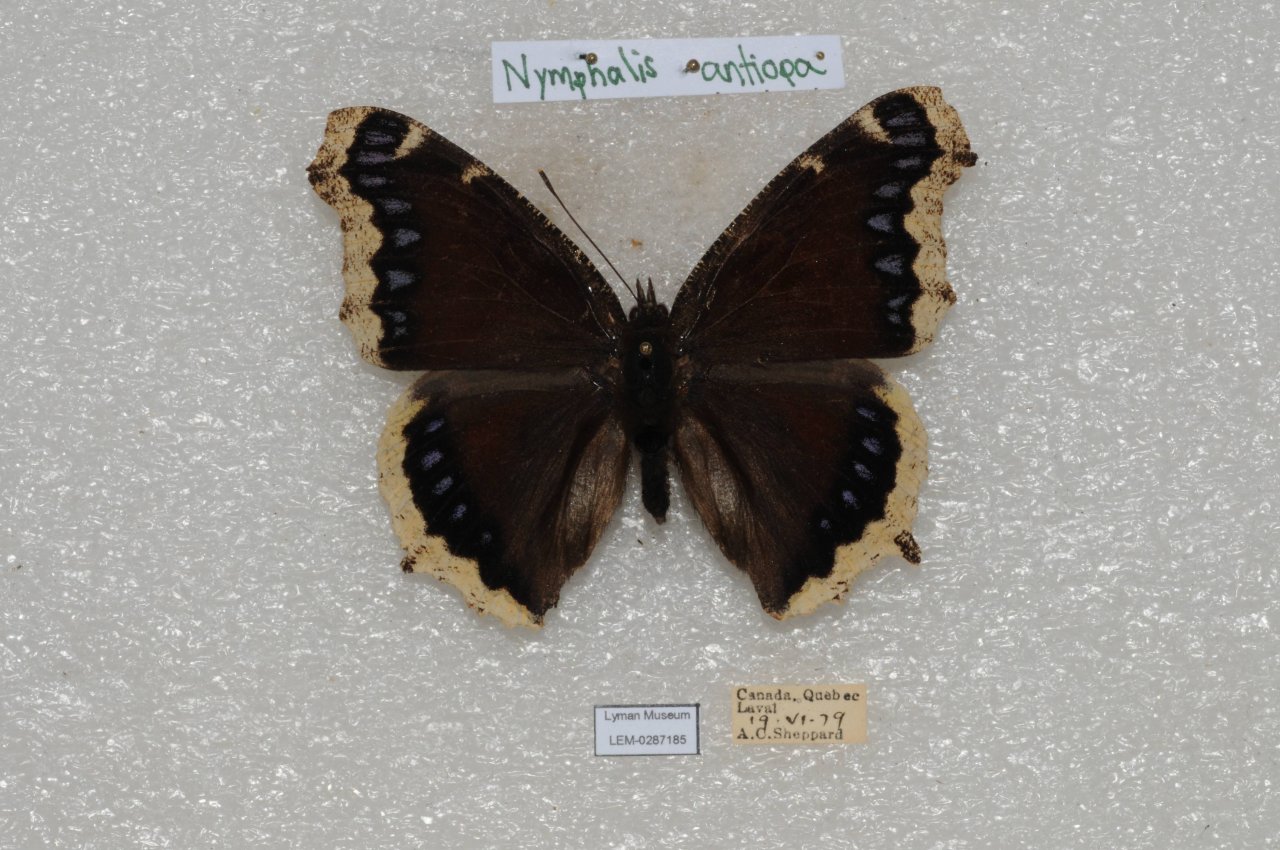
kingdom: Animalia
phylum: Arthropoda
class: Insecta
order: Lepidoptera
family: Nymphalidae
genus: Nymphalis
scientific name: Nymphalis antiopa
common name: Mourning Cloak
